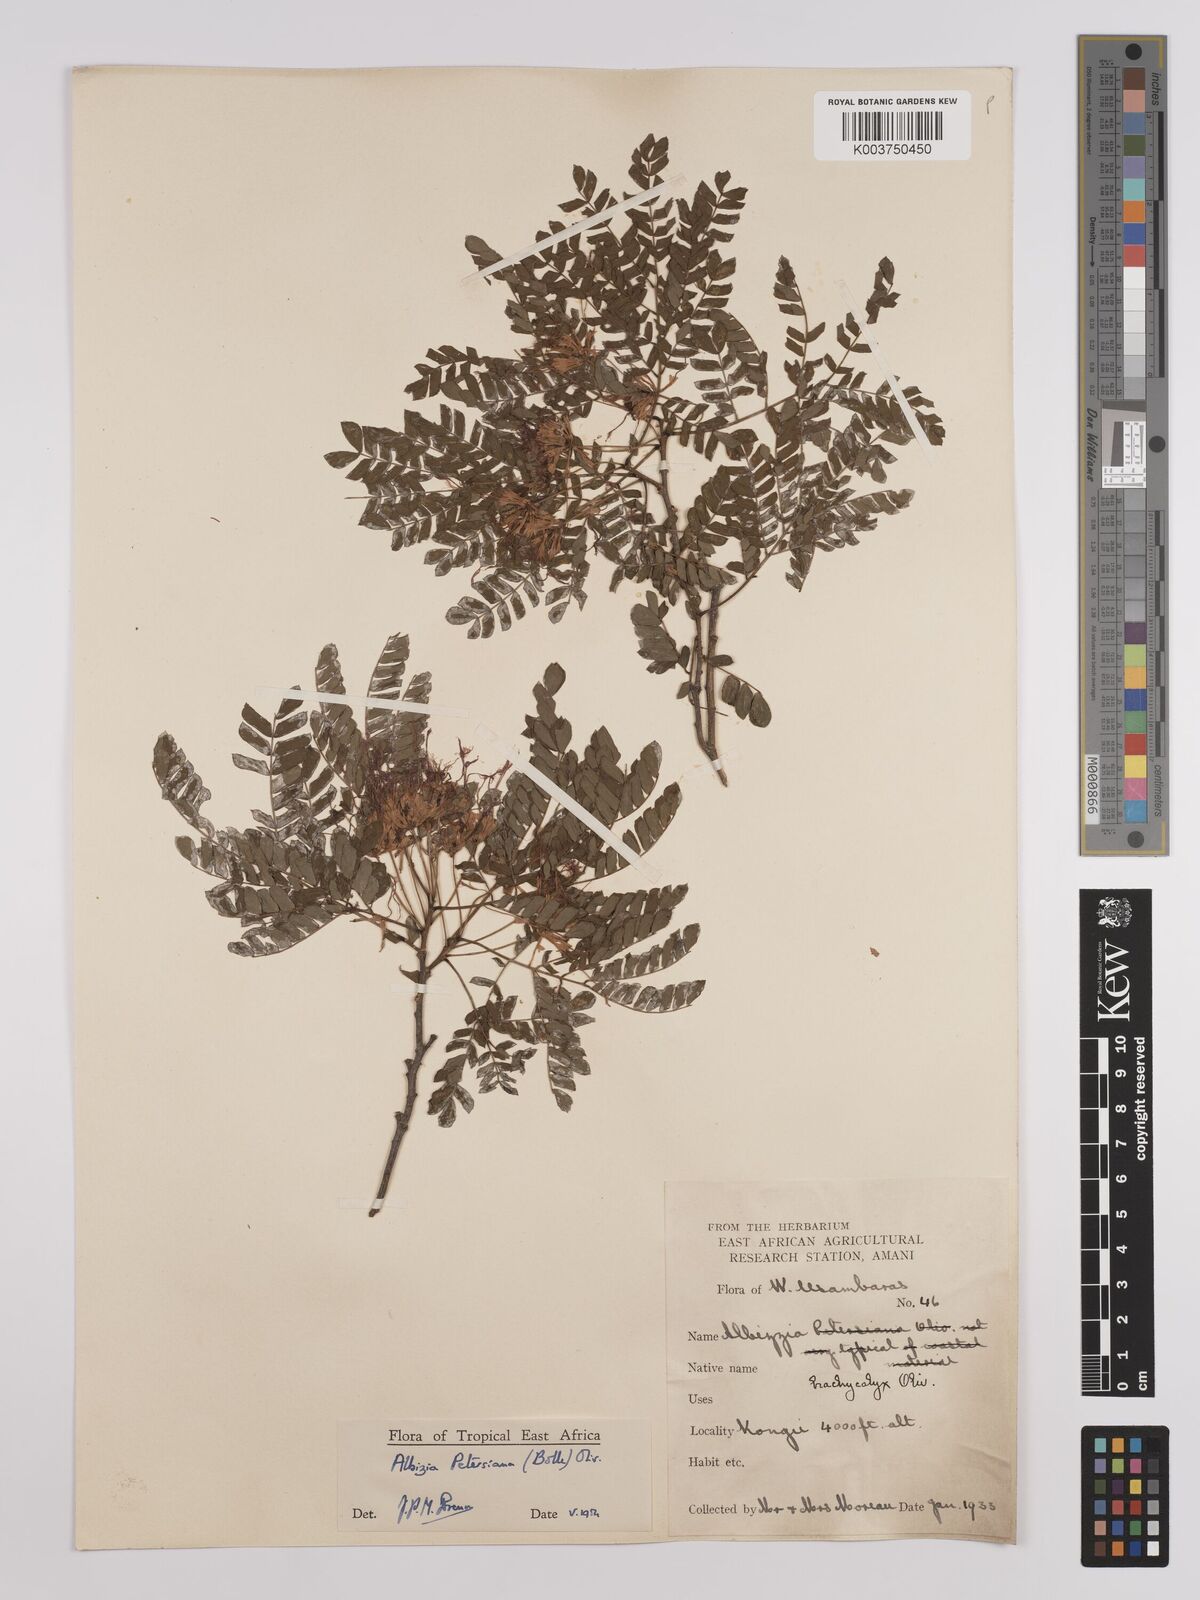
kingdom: Plantae
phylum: Tracheophyta
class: Magnoliopsida
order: Fabales
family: Fabaceae
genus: Albizia
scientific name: Albizia petersiana
